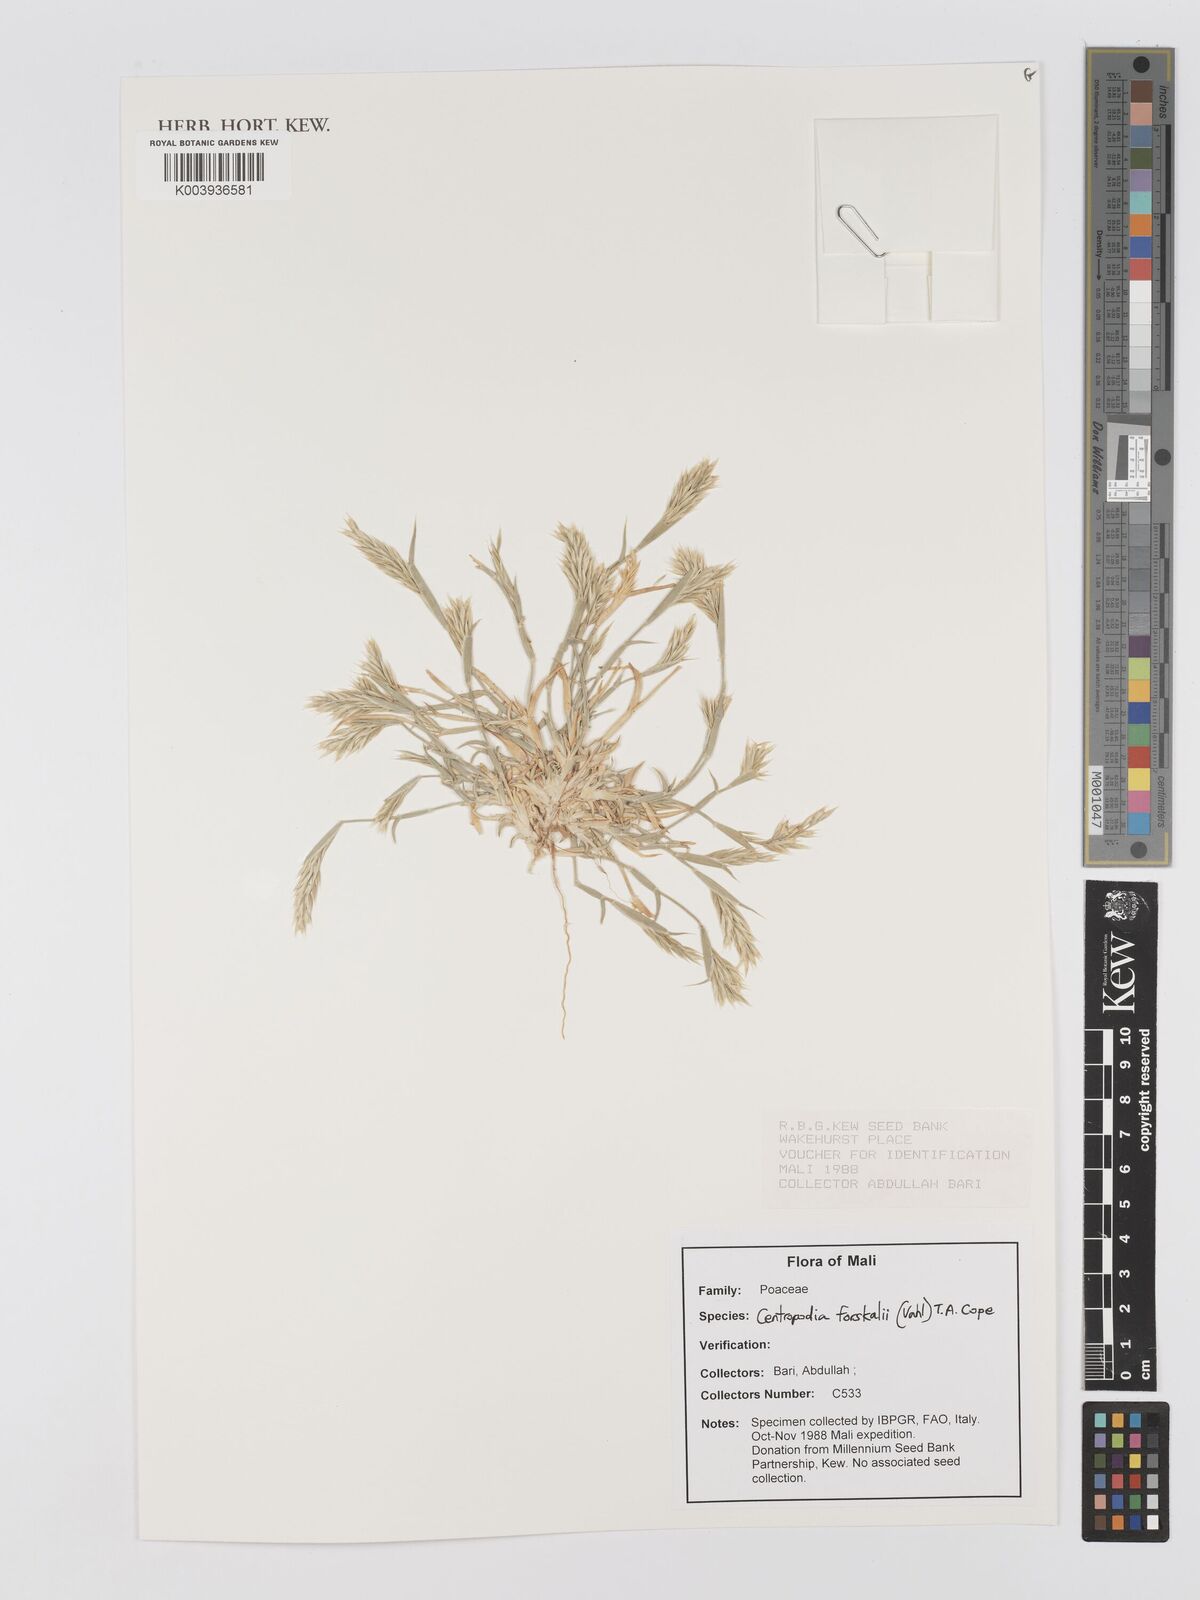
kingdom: Plantae
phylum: Tracheophyta
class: Liliopsida
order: Poales
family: Poaceae
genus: Centropodia
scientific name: Centropodia forskaolii
